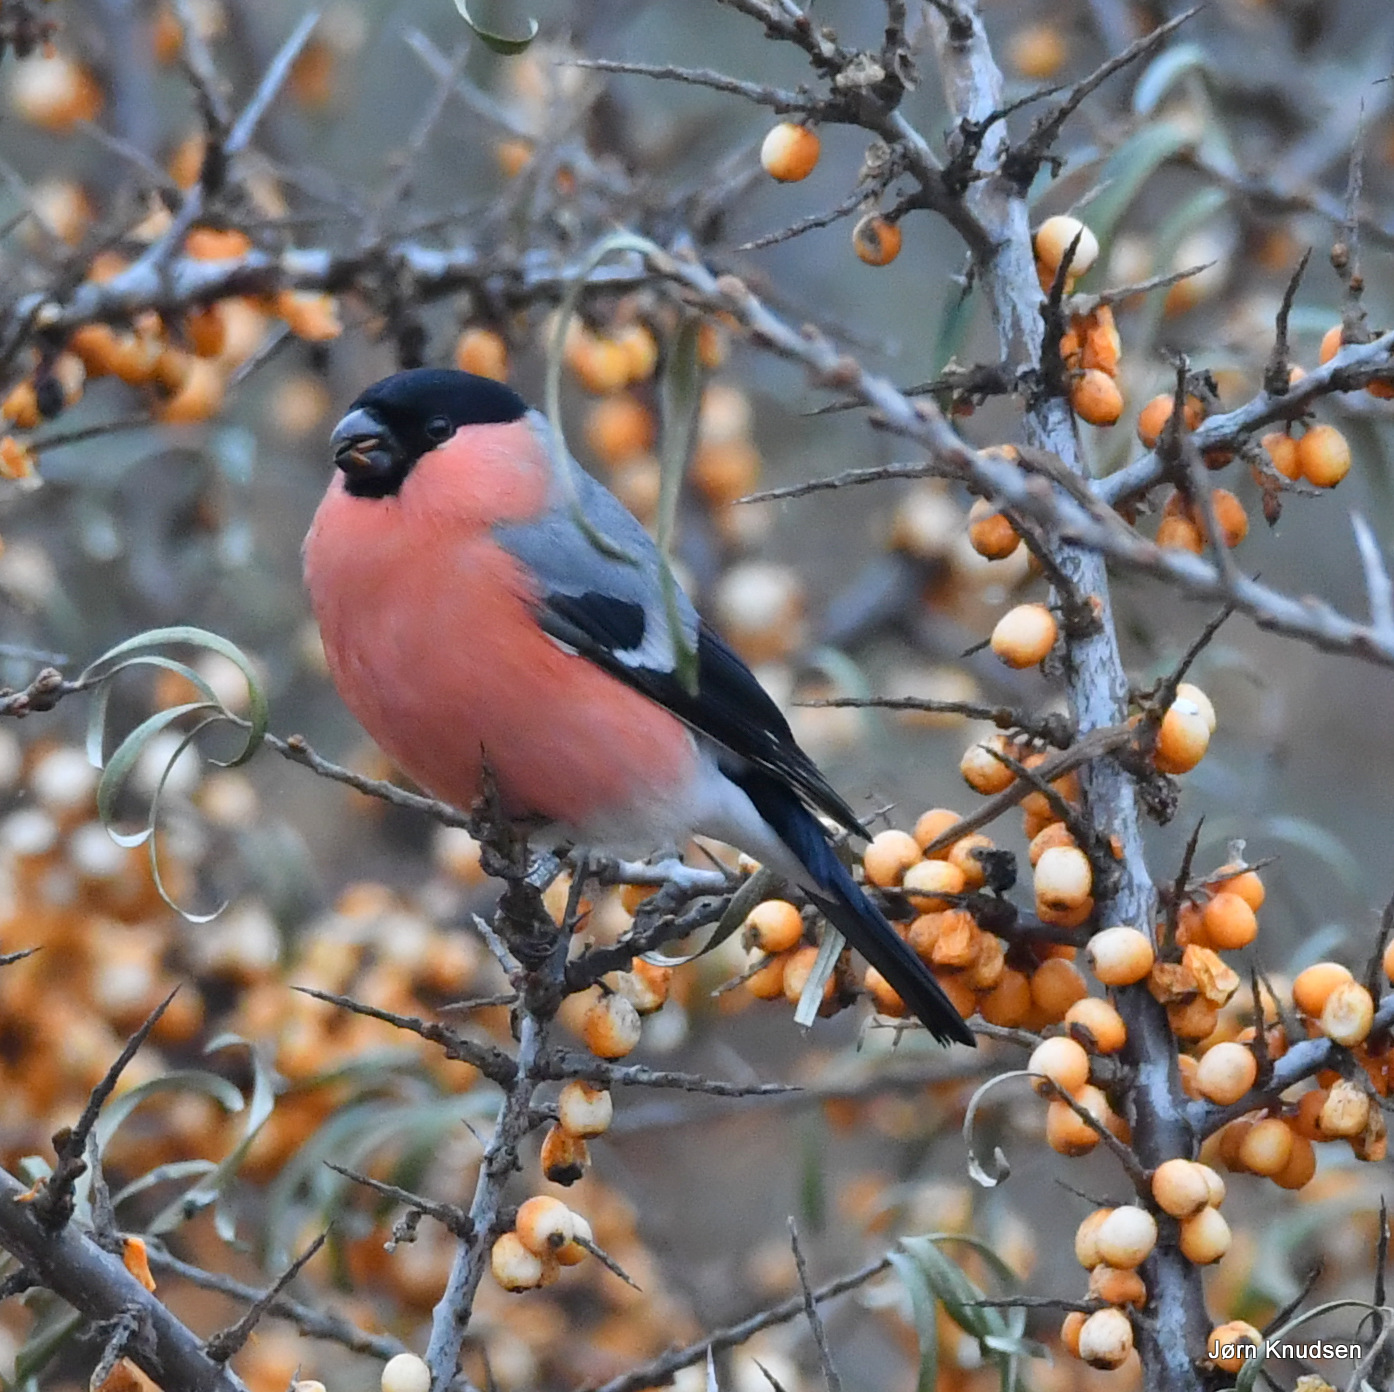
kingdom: Animalia
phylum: Chordata
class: Aves
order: Passeriformes
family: Fringillidae
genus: Pyrrhula
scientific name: Pyrrhula pyrrhula
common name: Dompap
